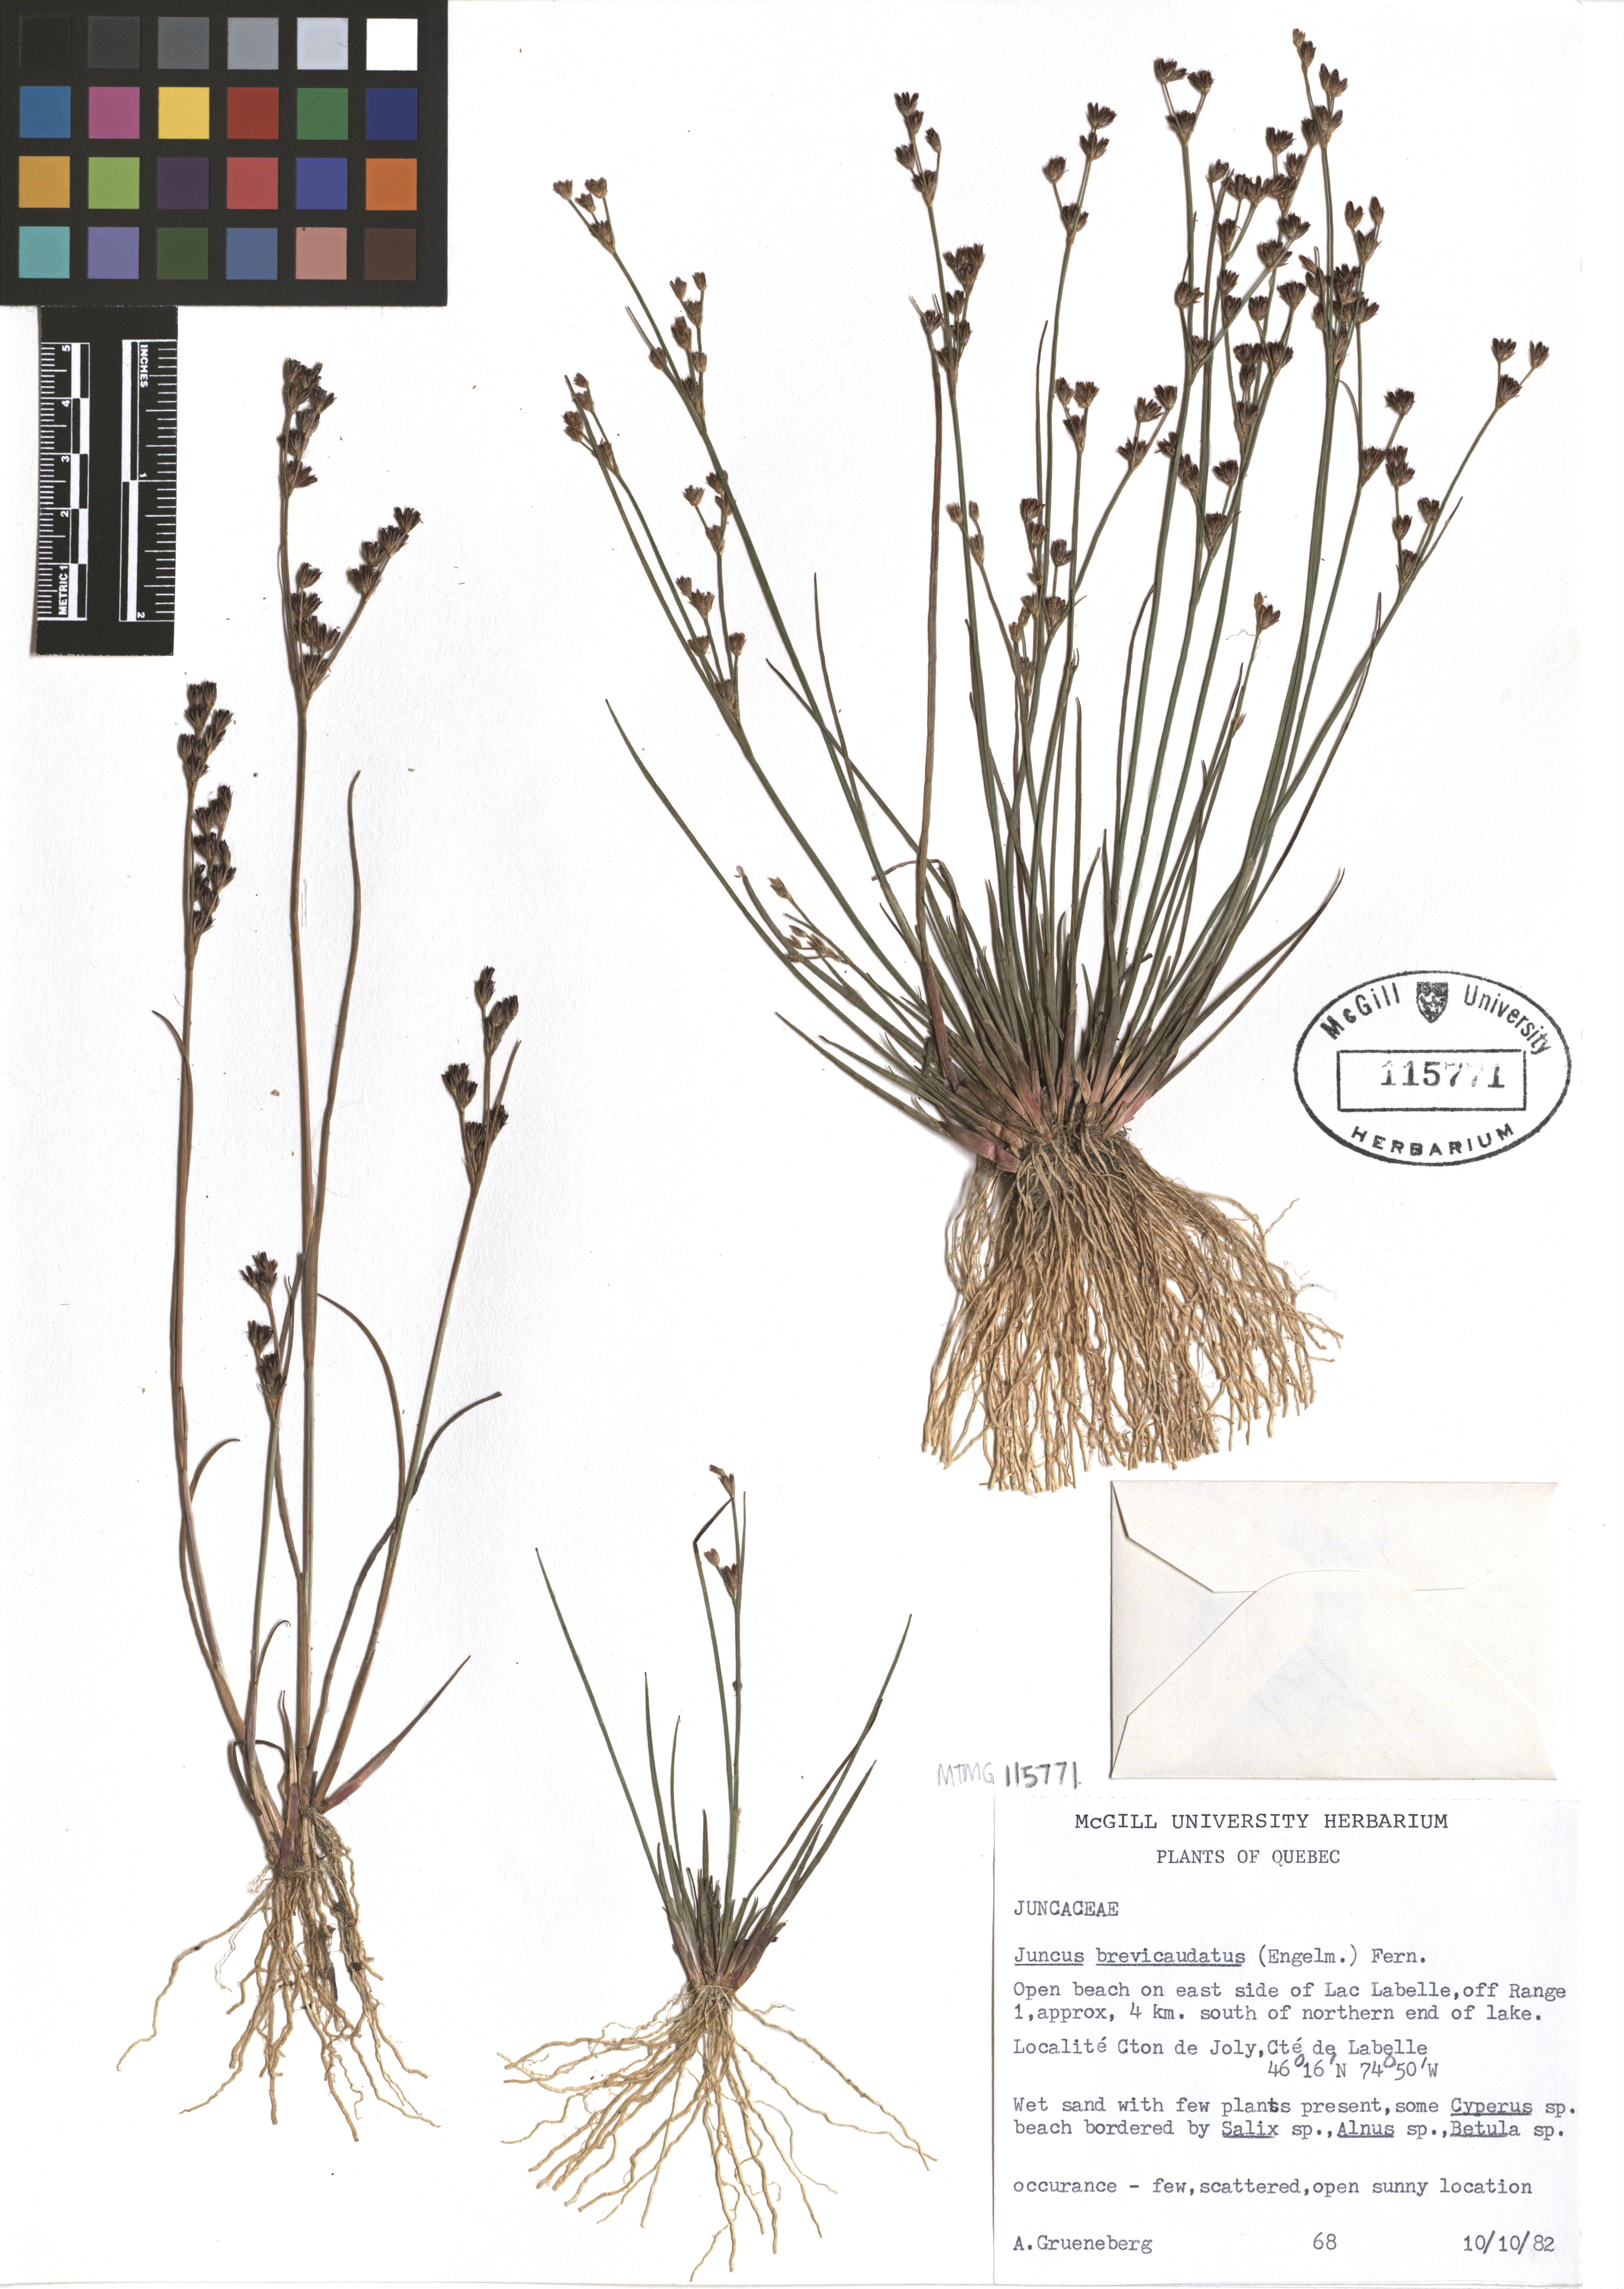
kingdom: Plantae
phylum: Tracheophyta
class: Liliopsida
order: Poales
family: Juncaceae
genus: Juncus
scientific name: Juncus brevicaudatus
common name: Narrow-panicle rush
